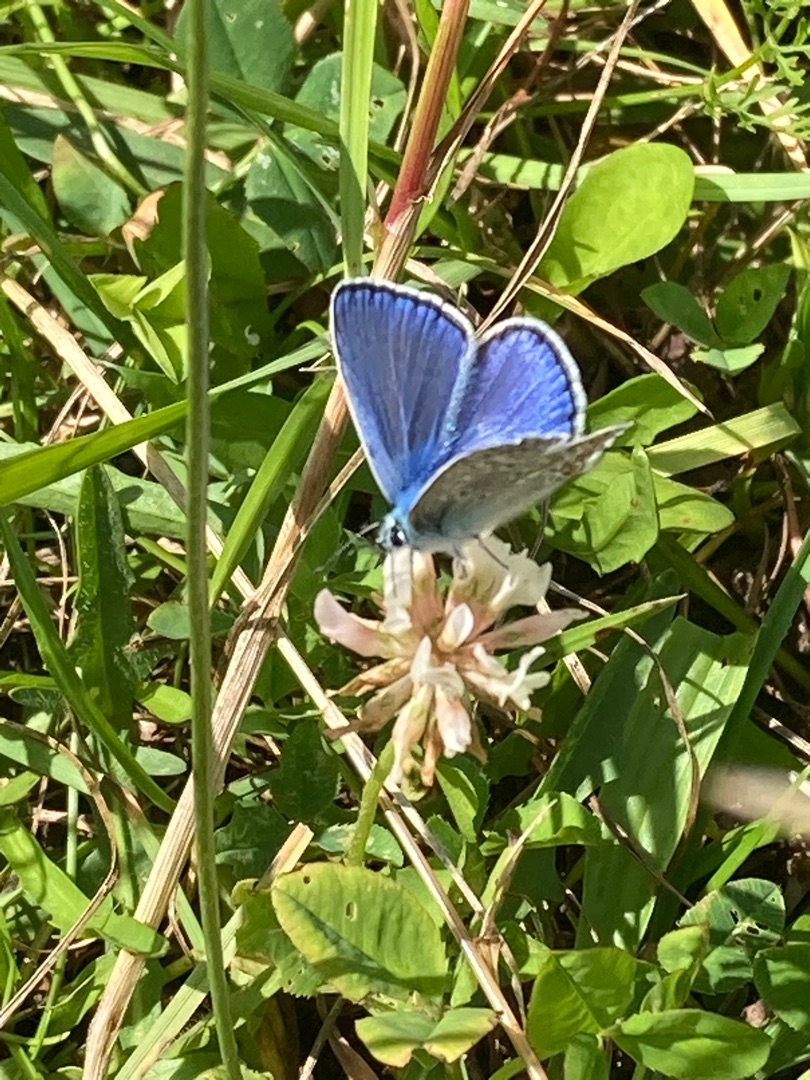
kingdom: Animalia
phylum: Arthropoda
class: Insecta
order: Lepidoptera
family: Lycaenidae
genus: Polyommatus
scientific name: Polyommatus icarus
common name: Almindelig blåfugl
